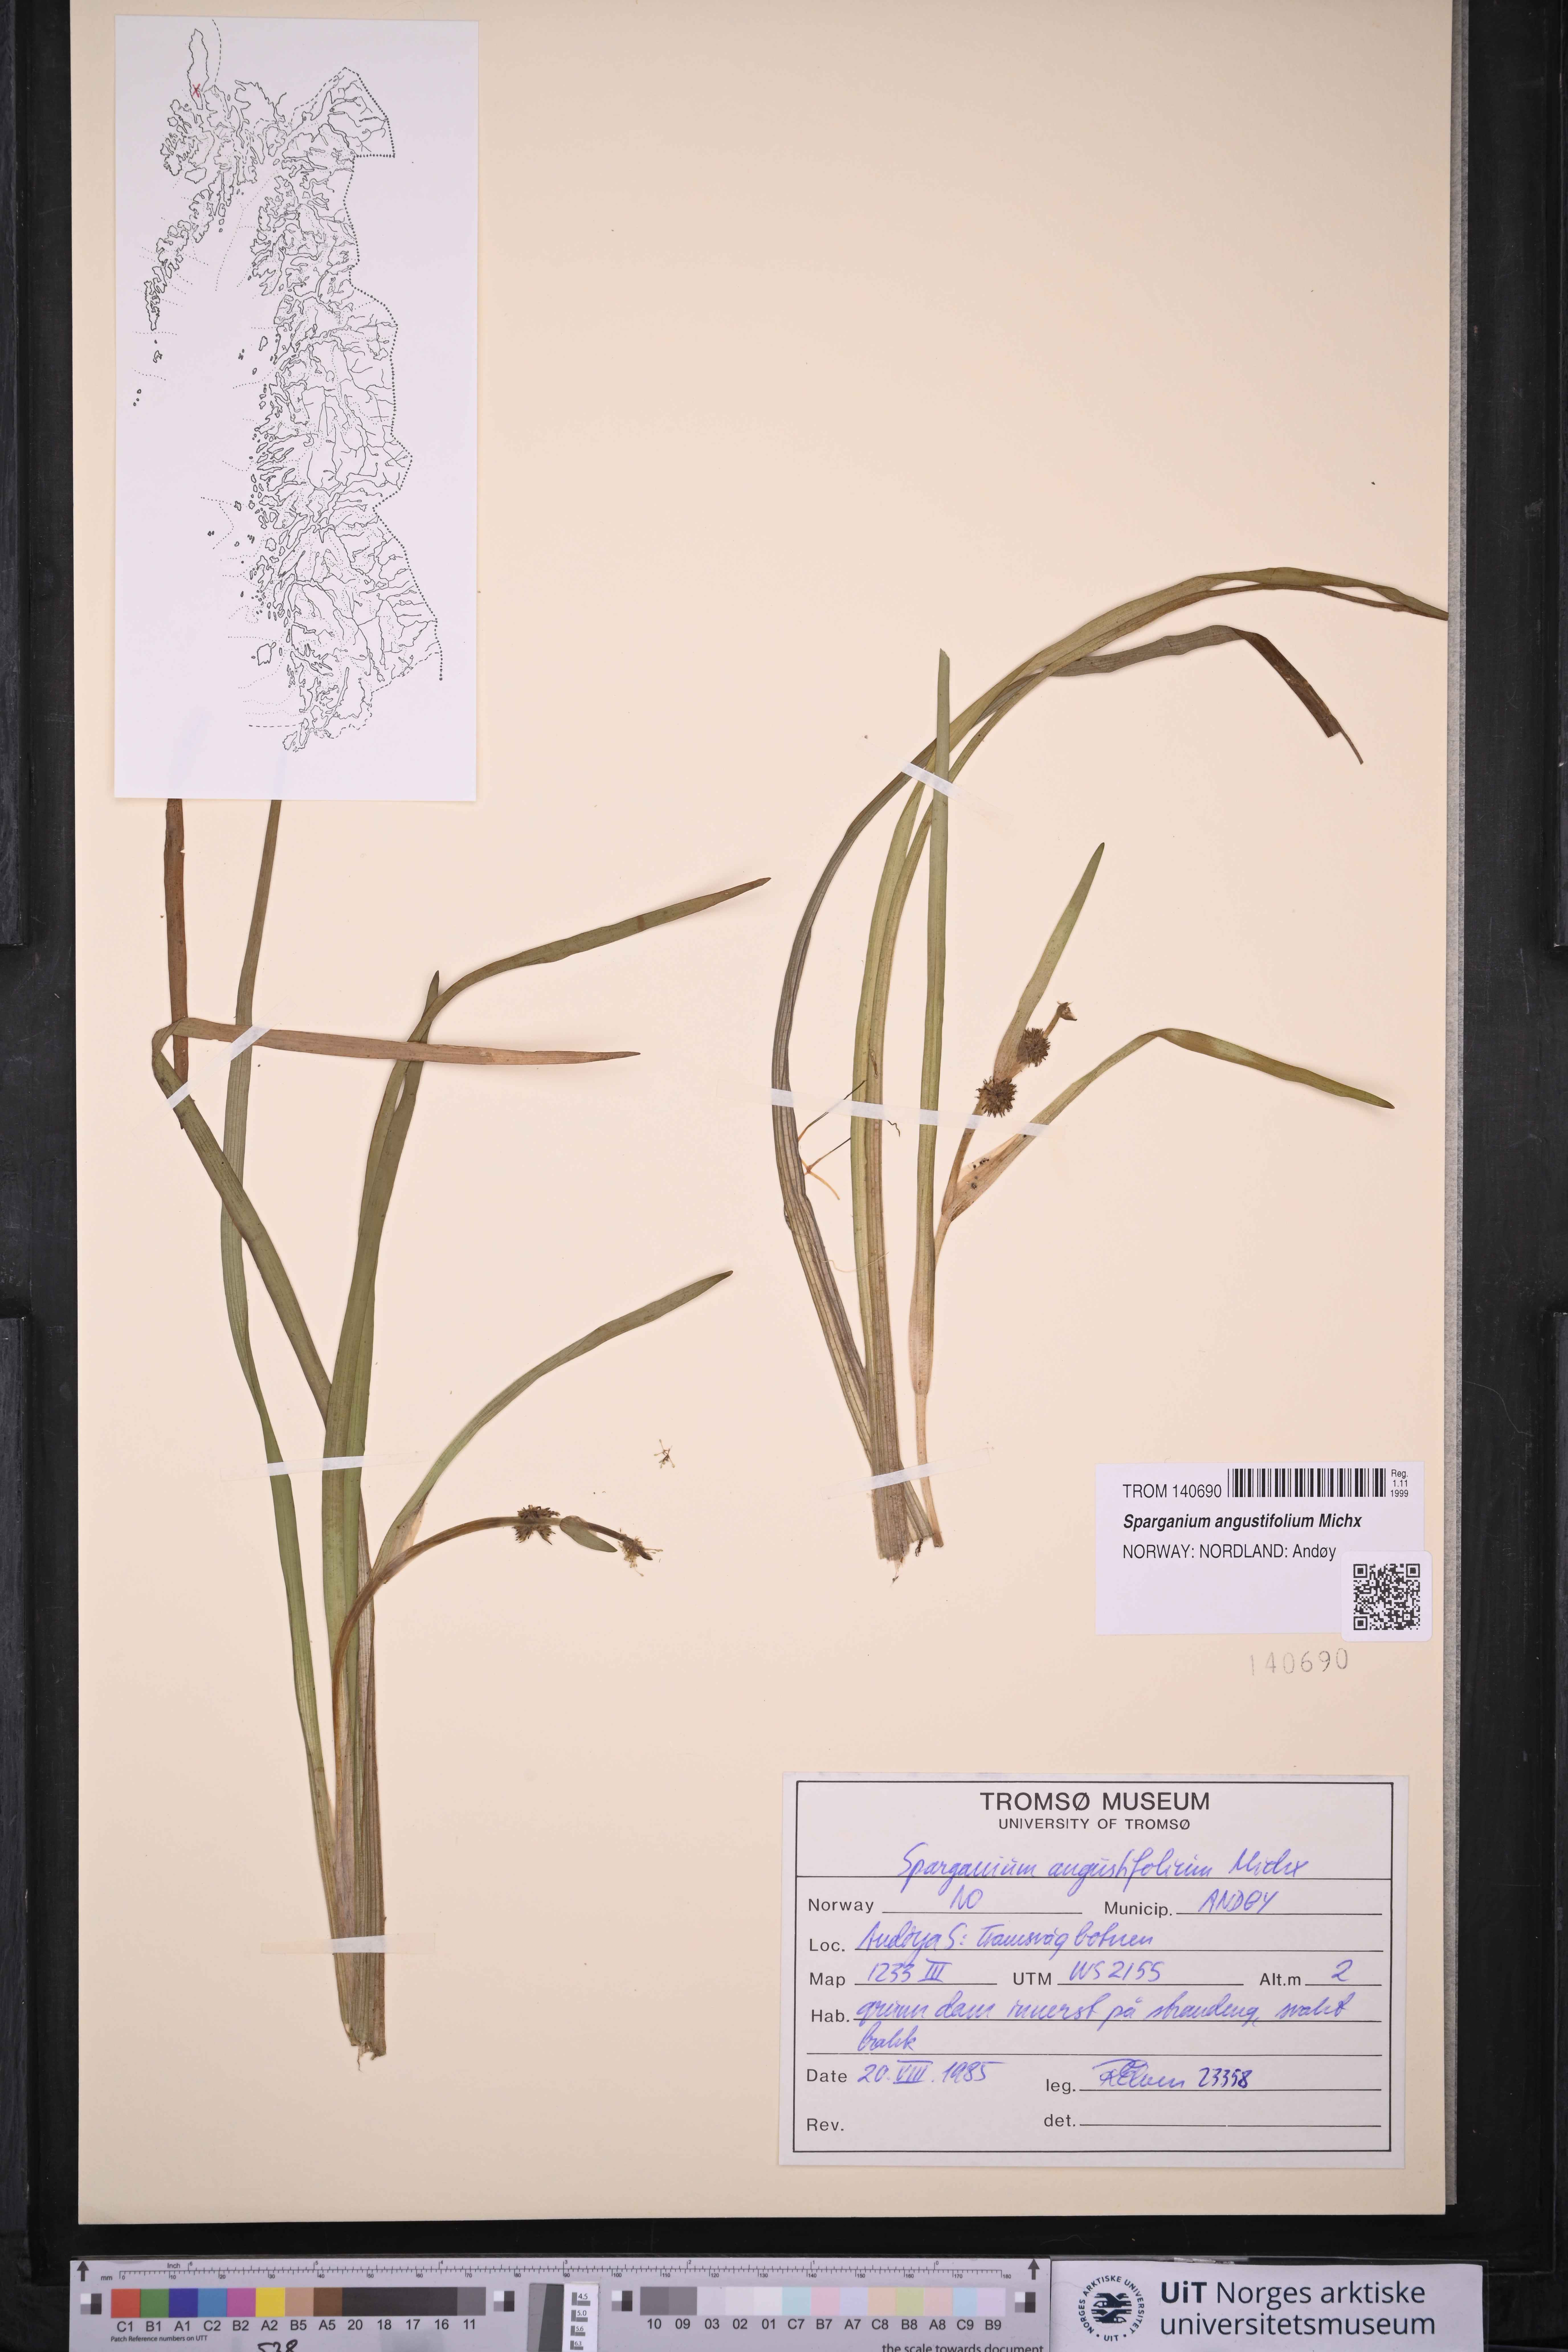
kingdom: Plantae
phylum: Tracheophyta
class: Liliopsida
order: Poales
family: Typhaceae
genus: Sparganium
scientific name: Sparganium angustifolium
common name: Floating bur-reed
